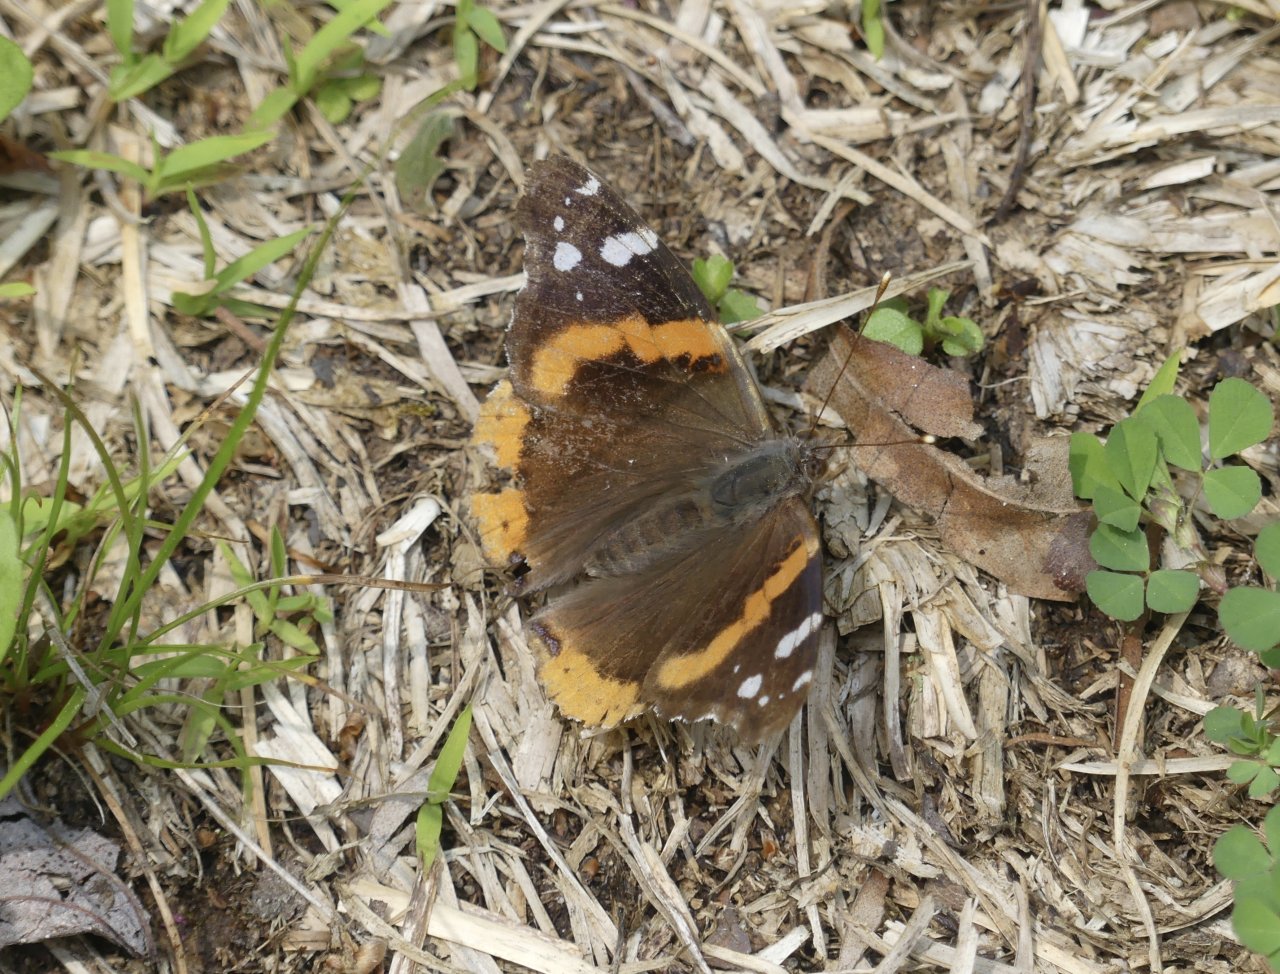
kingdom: Animalia
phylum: Arthropoda
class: Insecta
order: Lepidoptera
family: Nymphalidae
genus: Vanessa
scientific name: Vanessa atalanta
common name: Red Admiral
